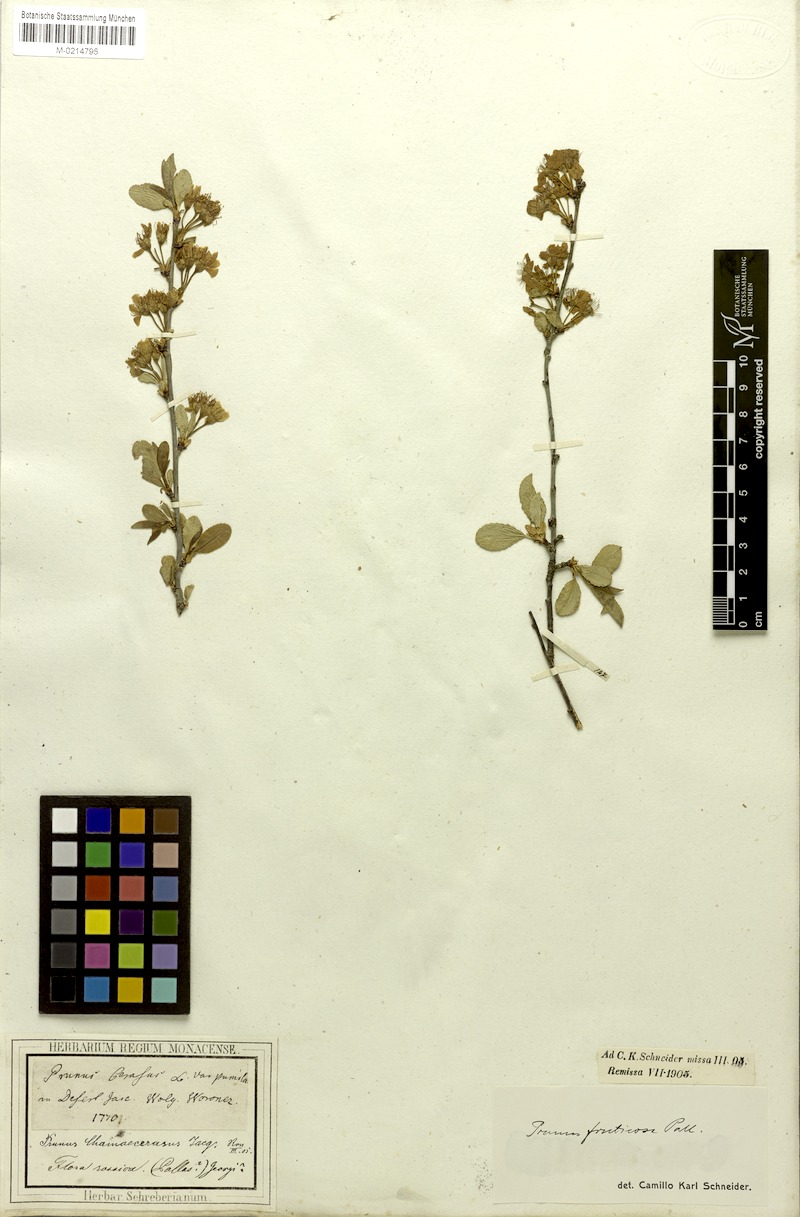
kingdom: Plantae
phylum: Tracheophyta
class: Magnoliopsida
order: Rosales
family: Rosaceae
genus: Prunus
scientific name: Prunus fruticosa
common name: European dwarf cherry
